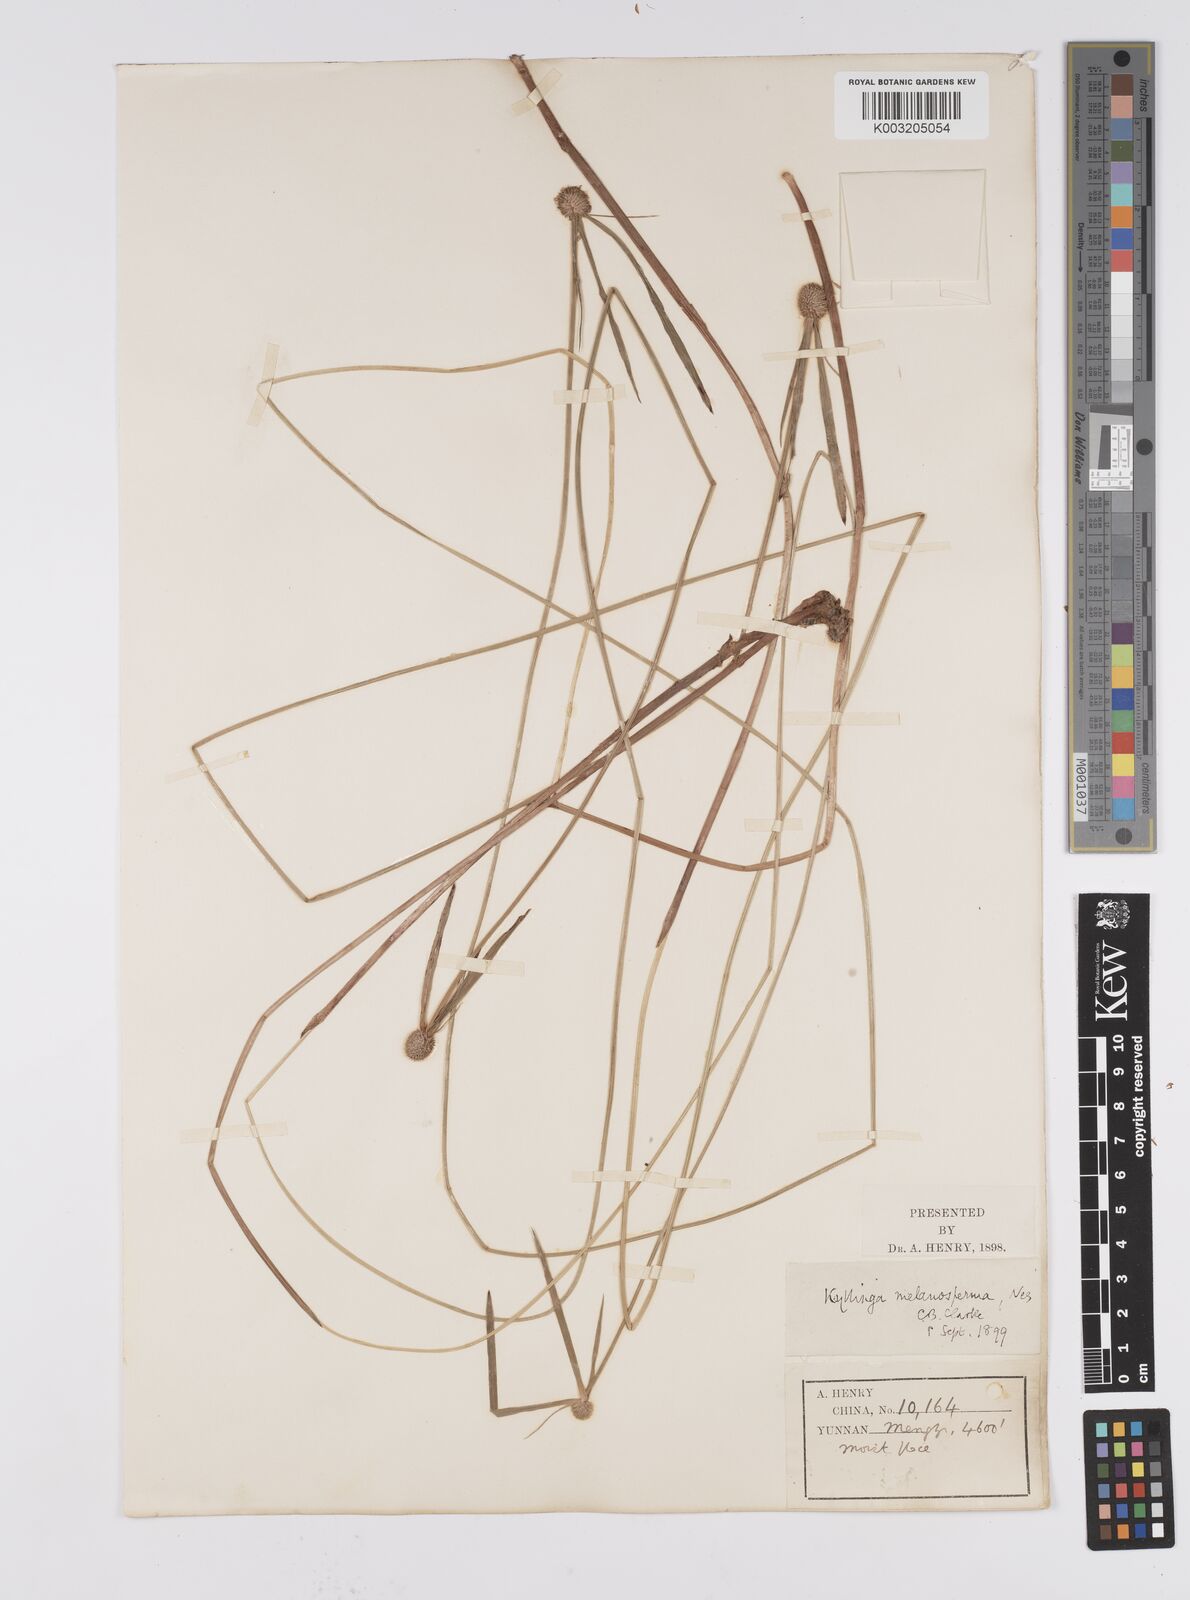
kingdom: Plantae
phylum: Tracheophyta
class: Liliopsida
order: Poales
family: Cyperaceae
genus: Cyperus
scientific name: Cyperus melanospermus
